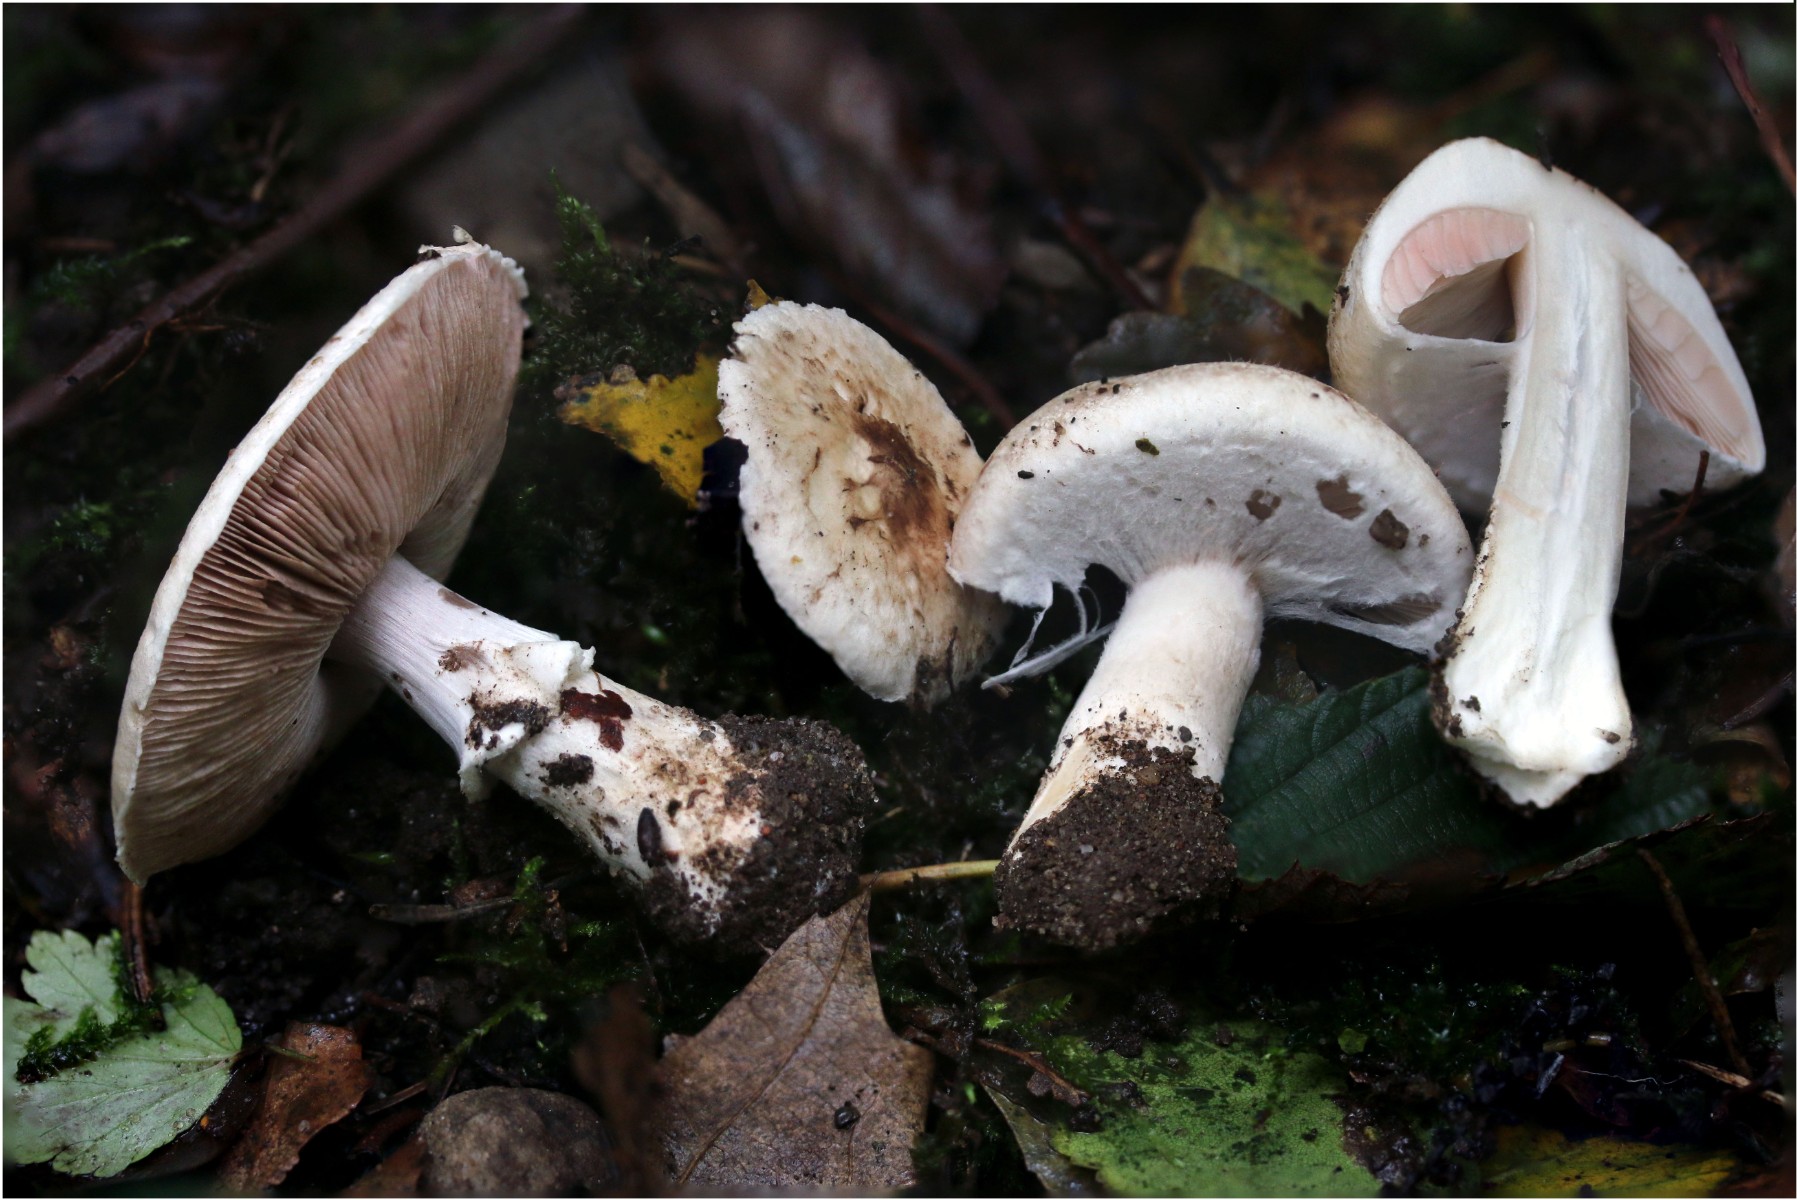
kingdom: Fungi
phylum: Basidiomycota
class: Agaricomycetes
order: Agaricales
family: Agaricaceae
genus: Agaricus
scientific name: Agaricus impudicus
